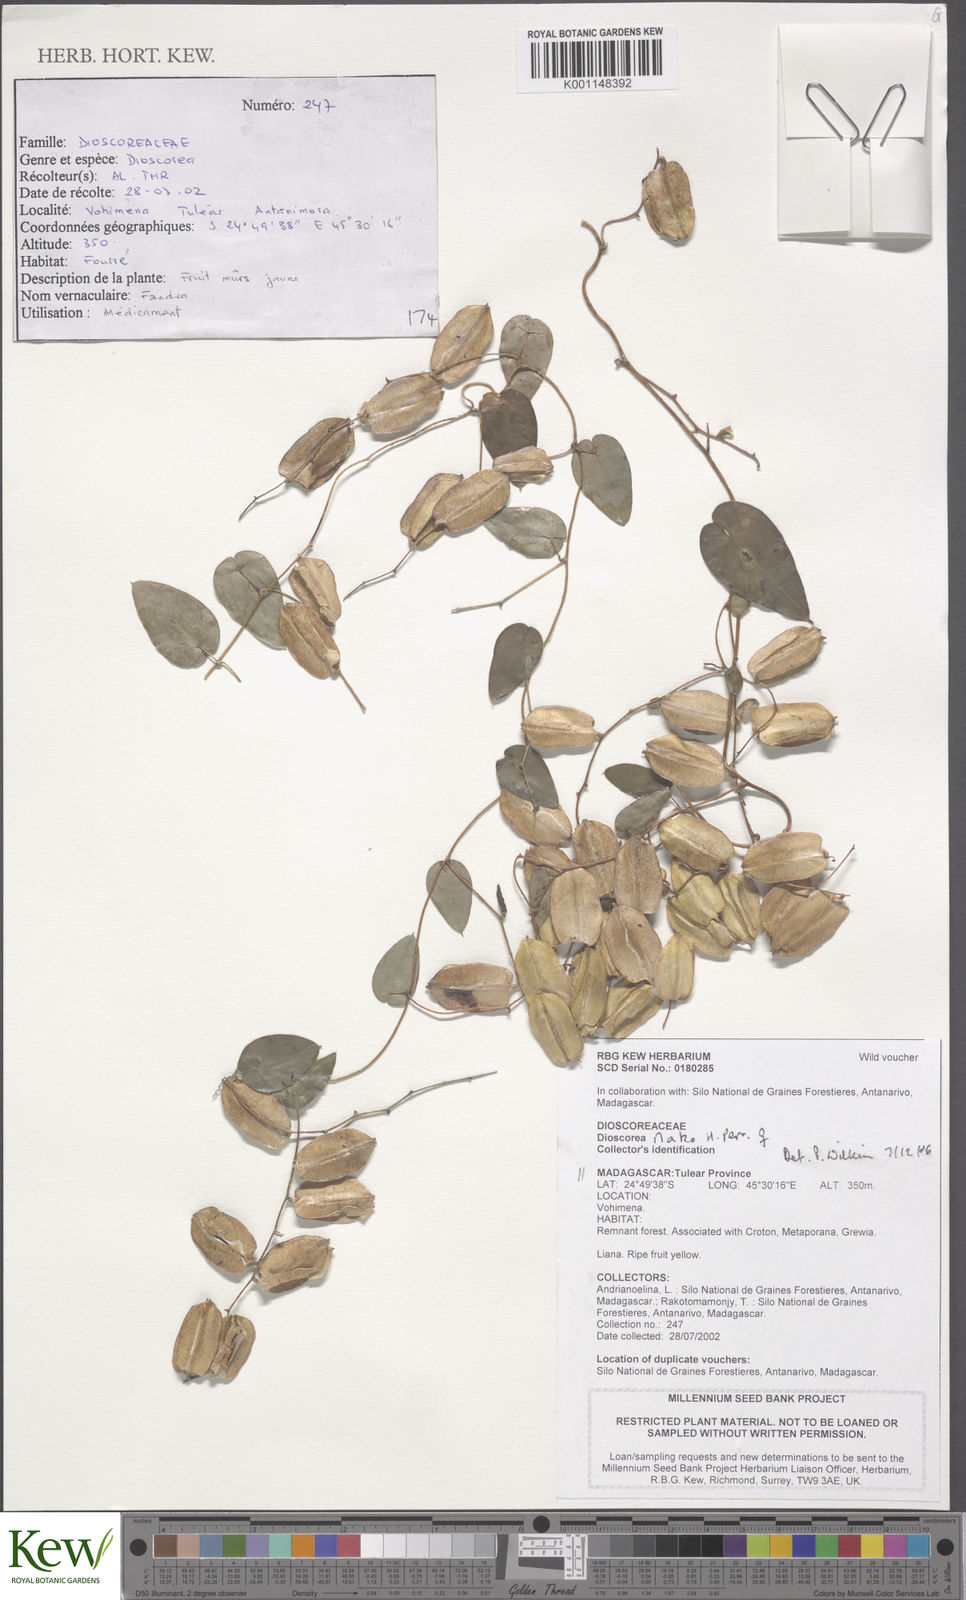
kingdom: Plantae
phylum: Tracheophyta
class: Liliopsida
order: Dioscoreales
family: Dioscoreaceae
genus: Dioscorea
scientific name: Dioscorea nako
